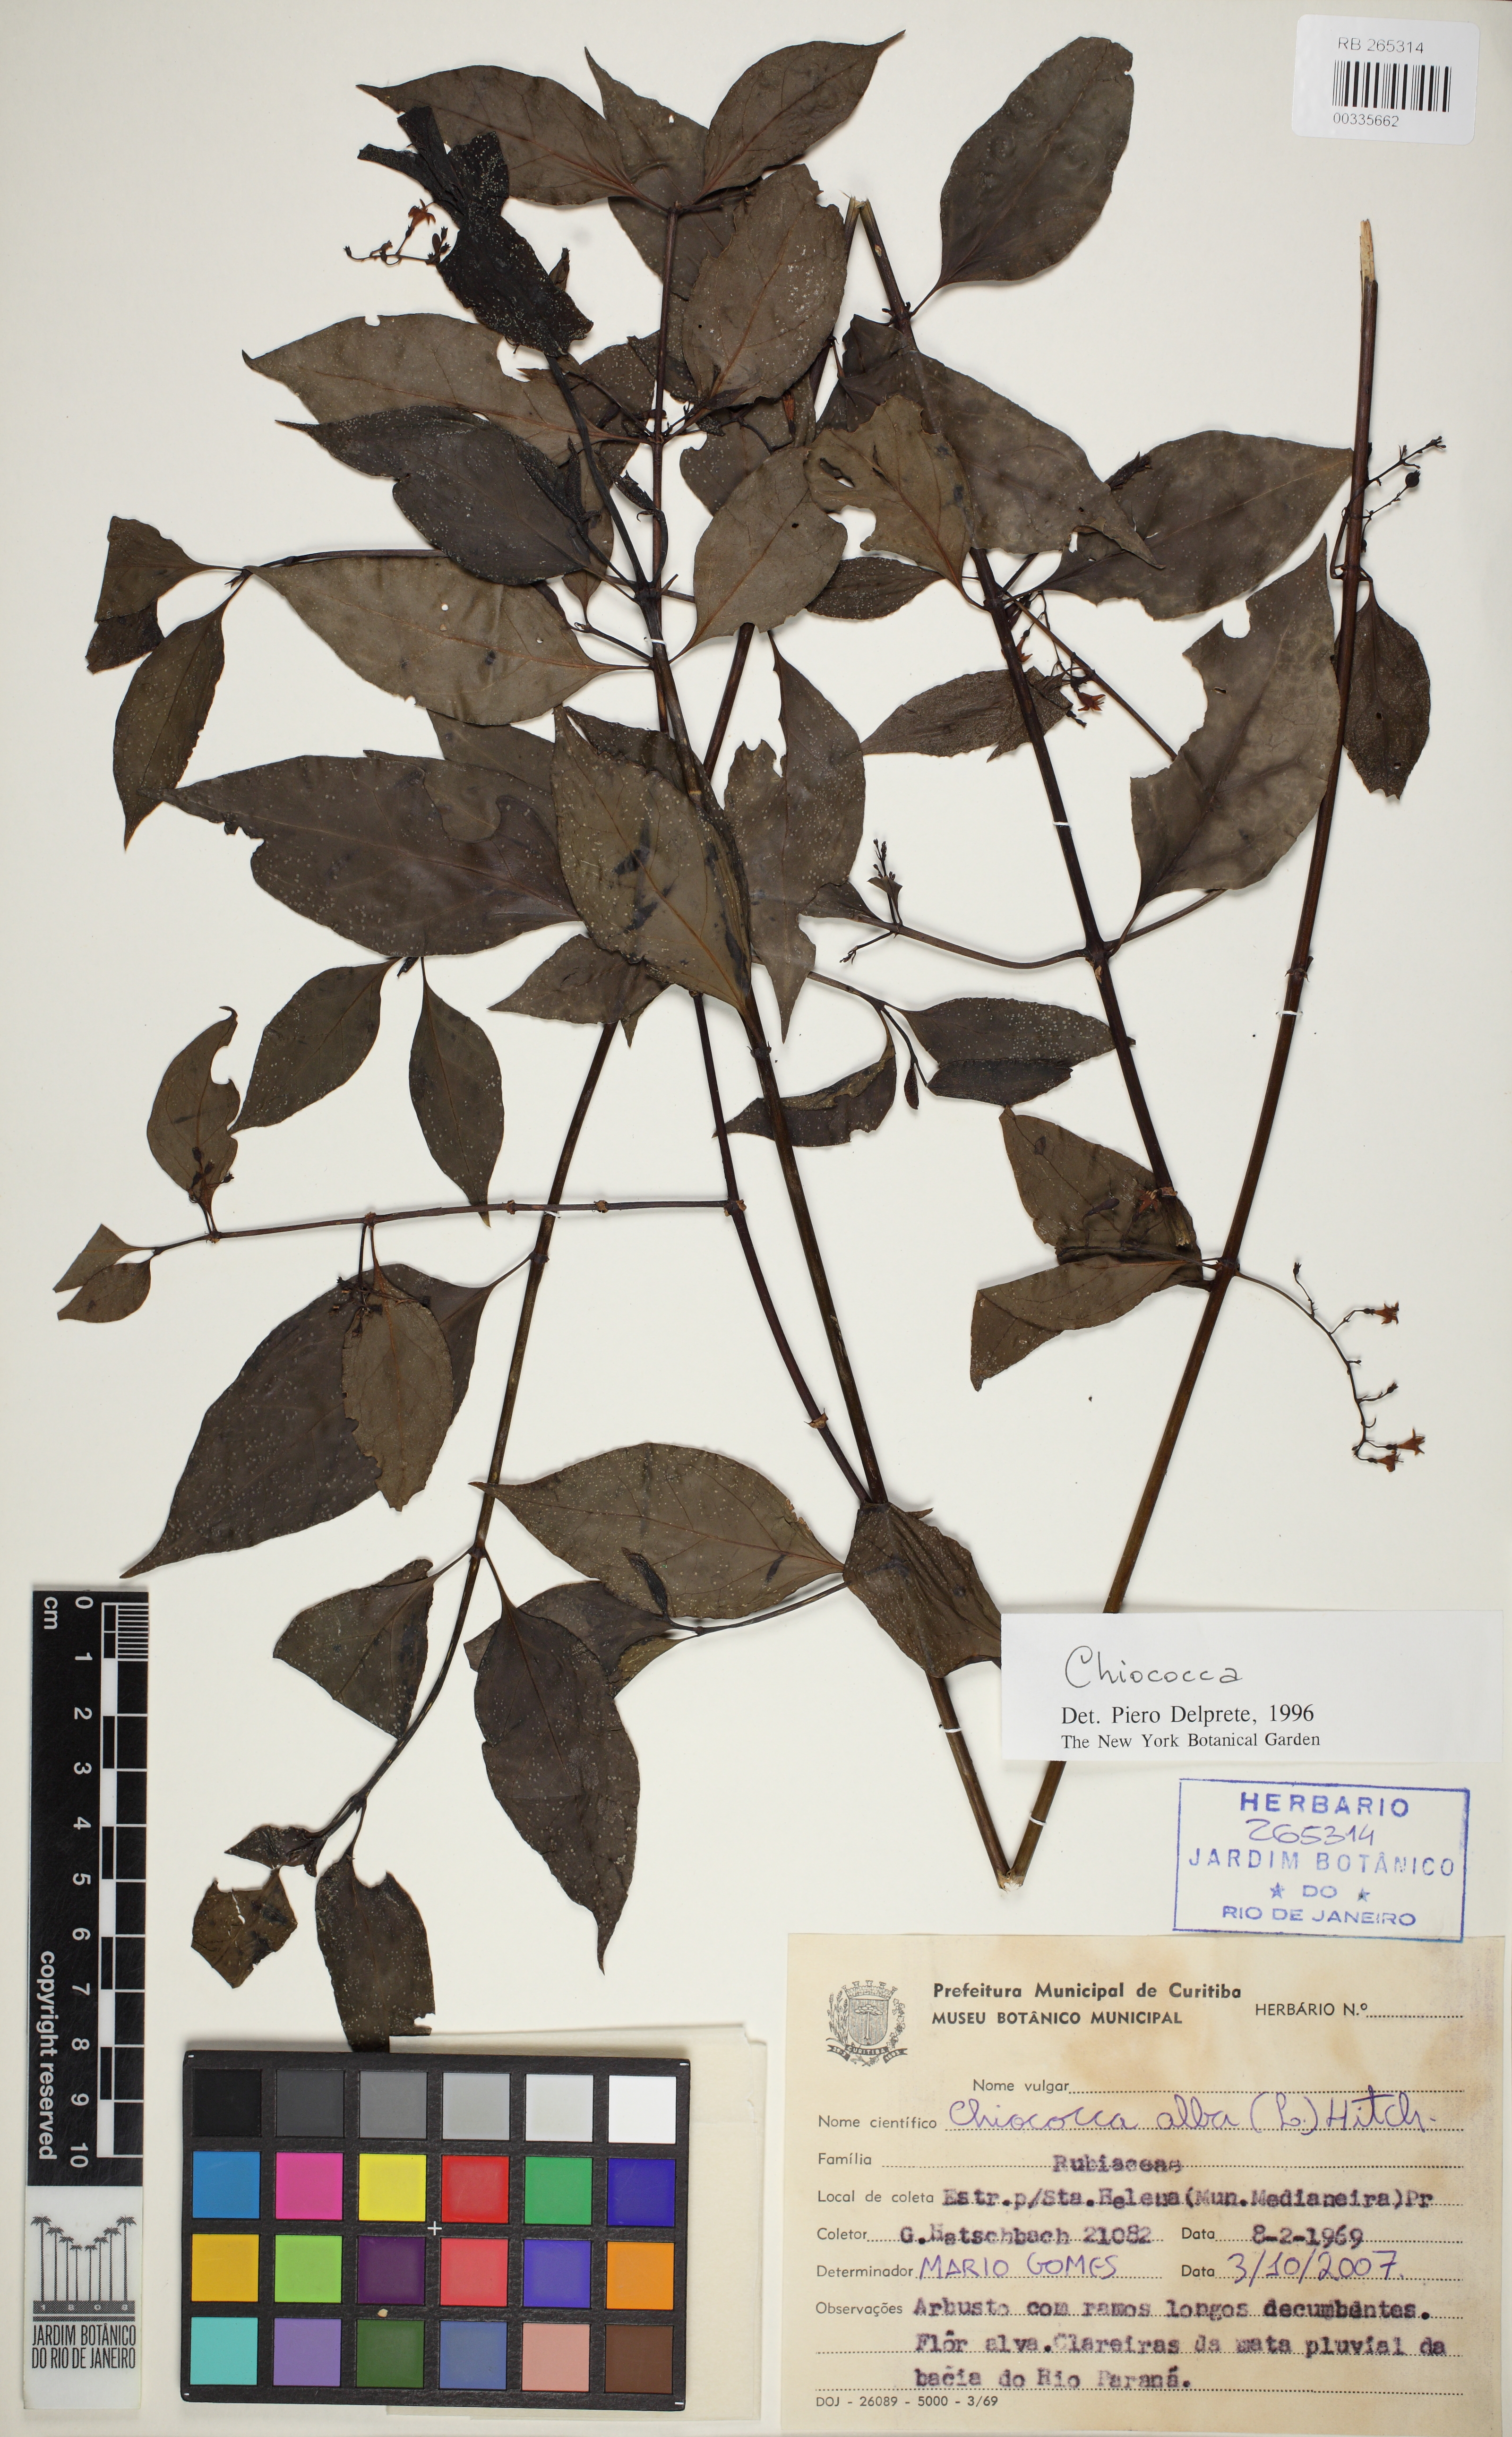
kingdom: Plantae
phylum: Tracheophyta
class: Magnoliopsida
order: Gentianales
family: Rubiaceae
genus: Chiococca
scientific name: Chiococca alba
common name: Snowberry
